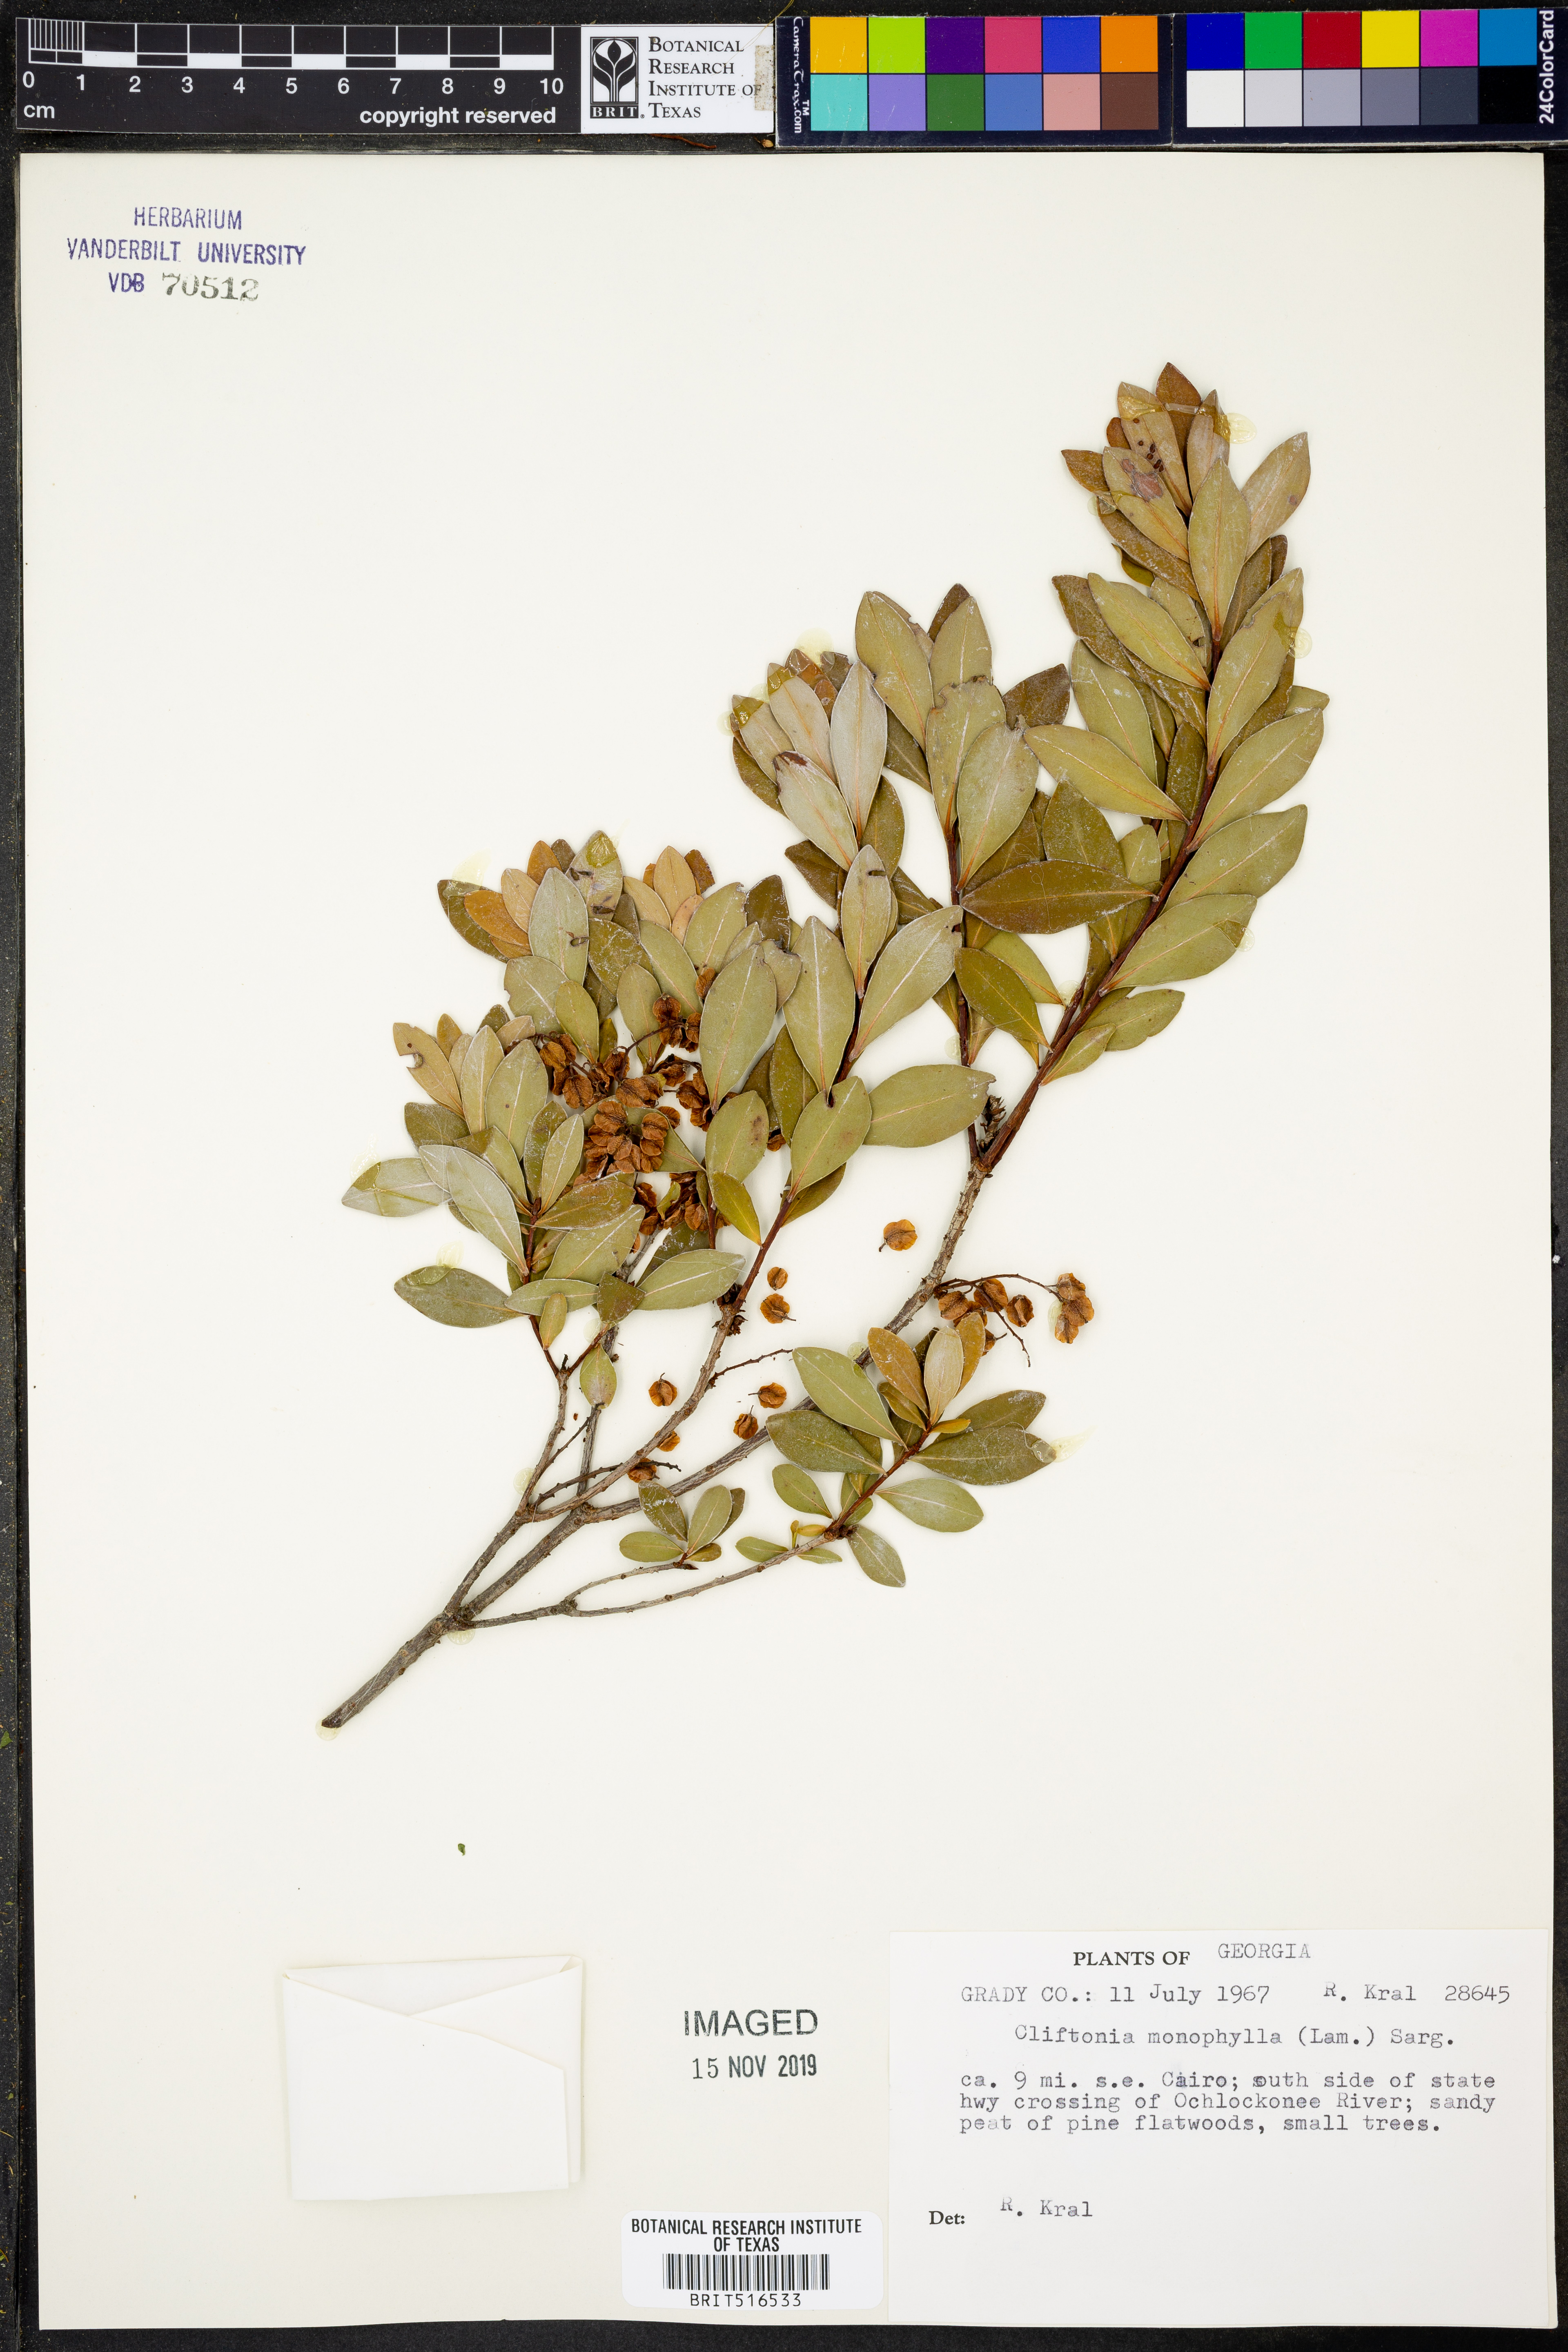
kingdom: Plantae
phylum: Tracheophyta
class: Magnoliopsida
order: Ericales
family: Cyrillaceae
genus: Cliftonia
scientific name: Cliftonia monophylla
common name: Titi
